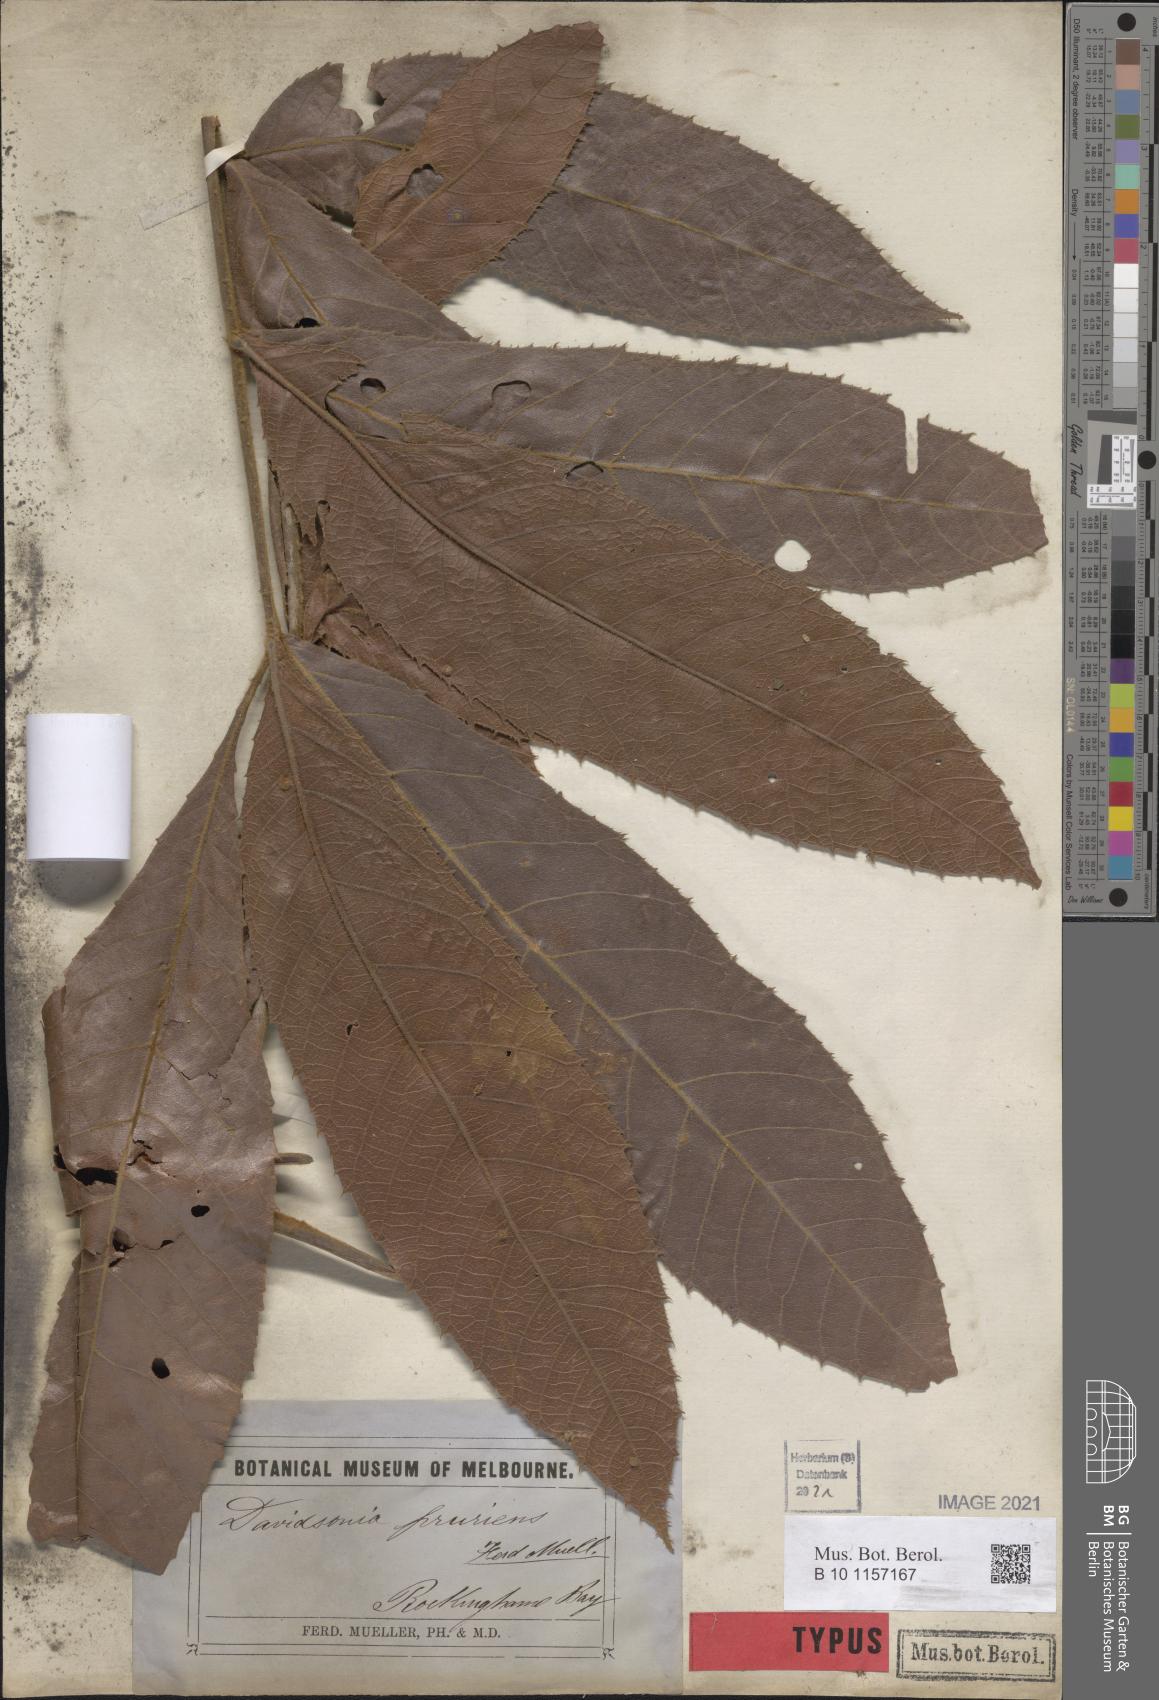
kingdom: Plantae
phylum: Tracheophyta
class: Magnoliopsida
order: Oxalidales
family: Cunoniaceae
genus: Davidsonia
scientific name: Davidsonia pruriens
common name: Do-rog
